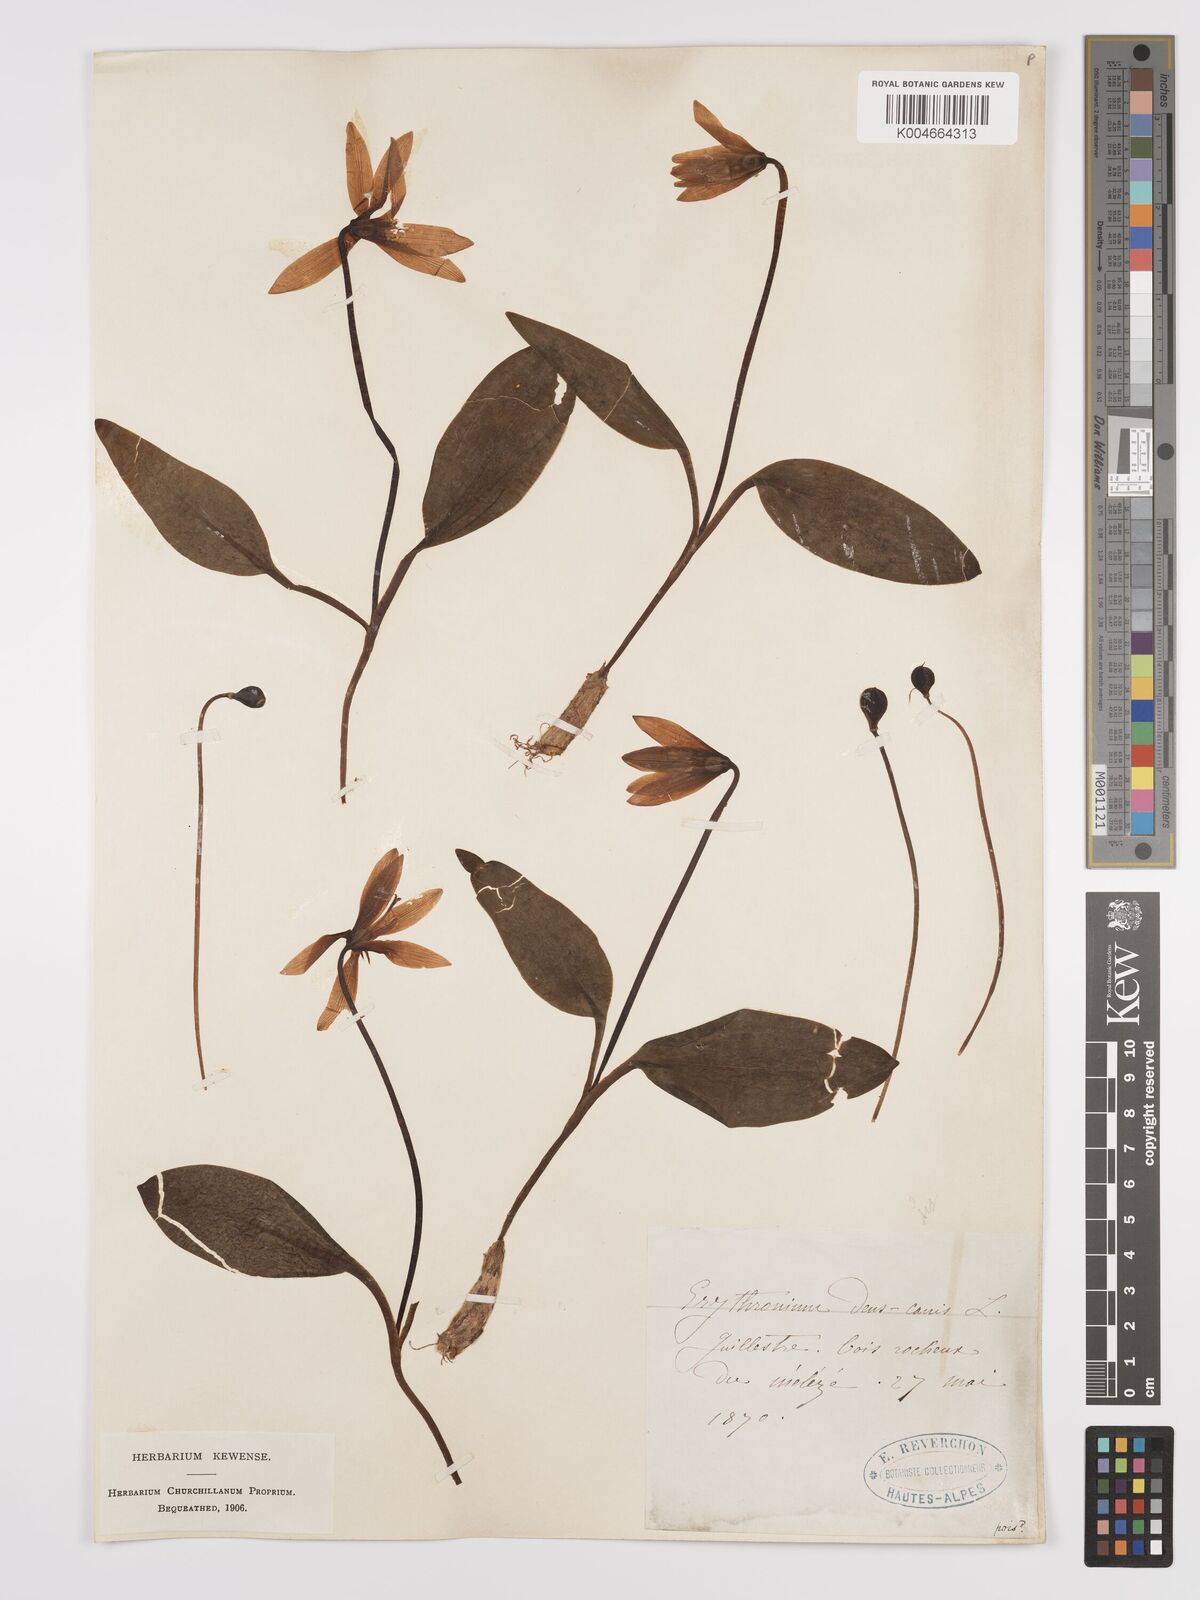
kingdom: Plantae
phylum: Tracheophyta
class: Liliopsida
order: Liliales
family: Liliaceae
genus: Erythronium
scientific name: Erythronium dens-canis
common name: Dog's-tooth-violet
